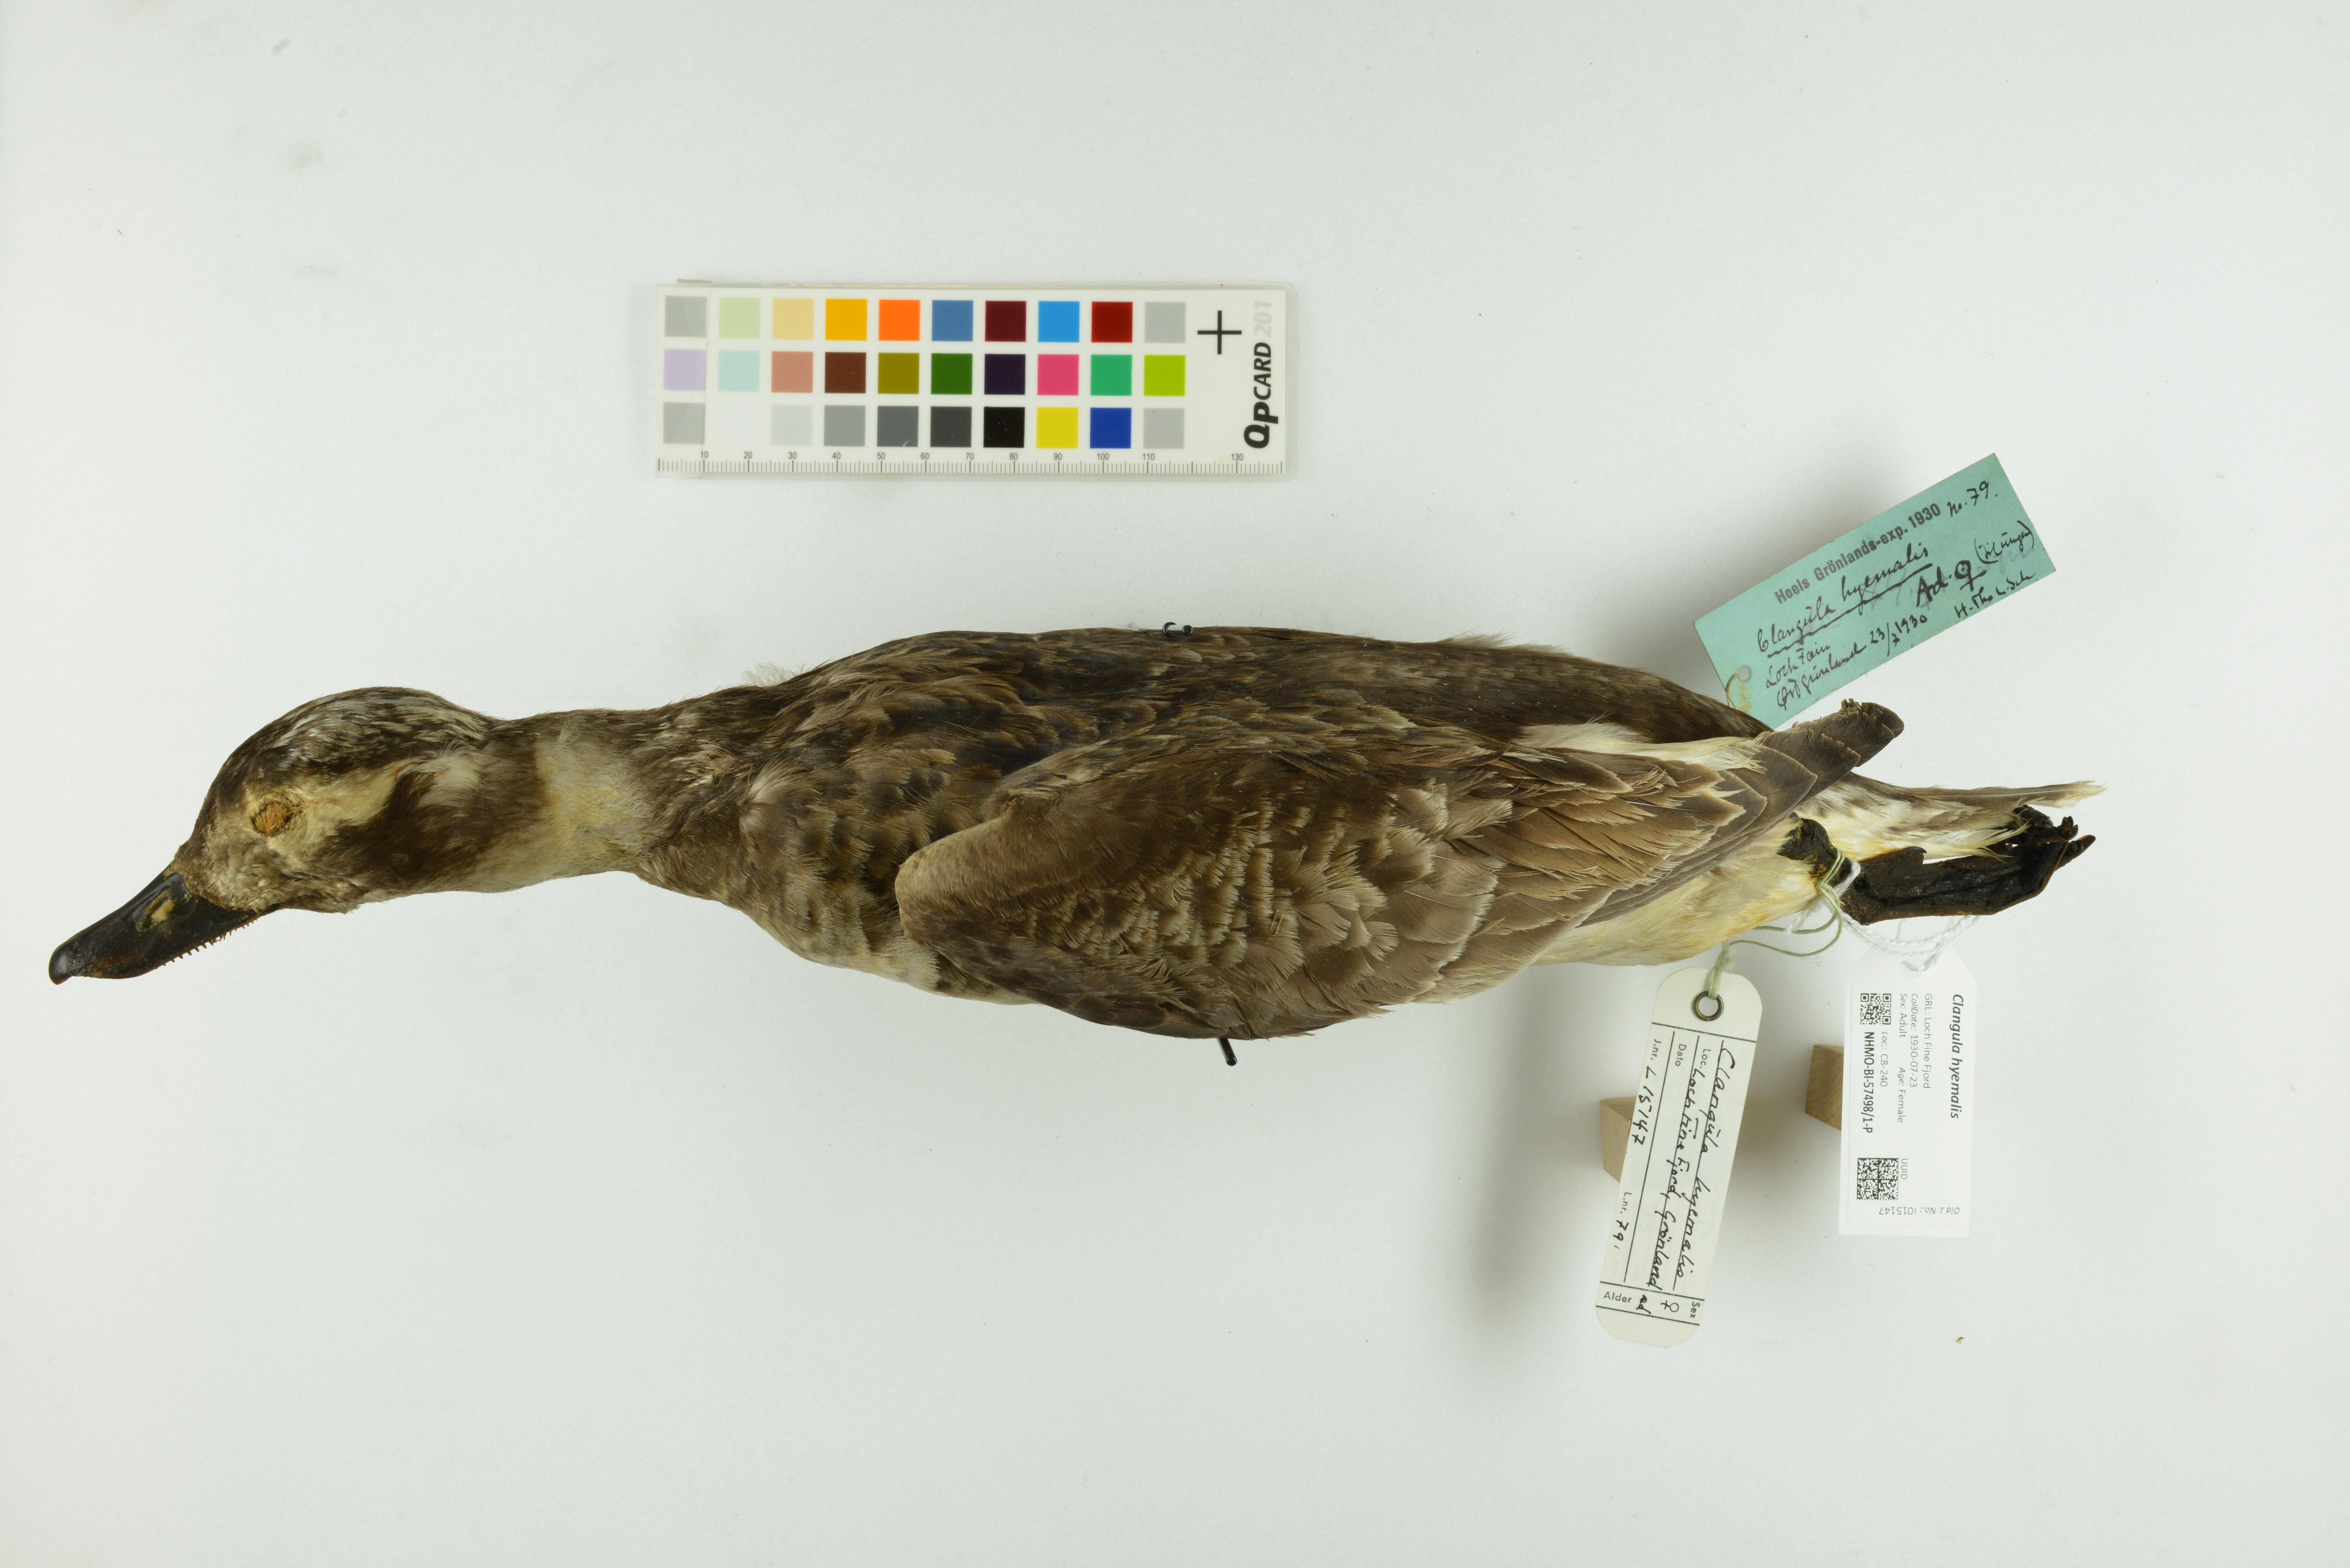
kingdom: Animalia
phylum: Chordata
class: Aves
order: Anseriformes
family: Anatidae
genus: Clangula
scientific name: Clangula hyemalis
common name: Long-tailed duck
